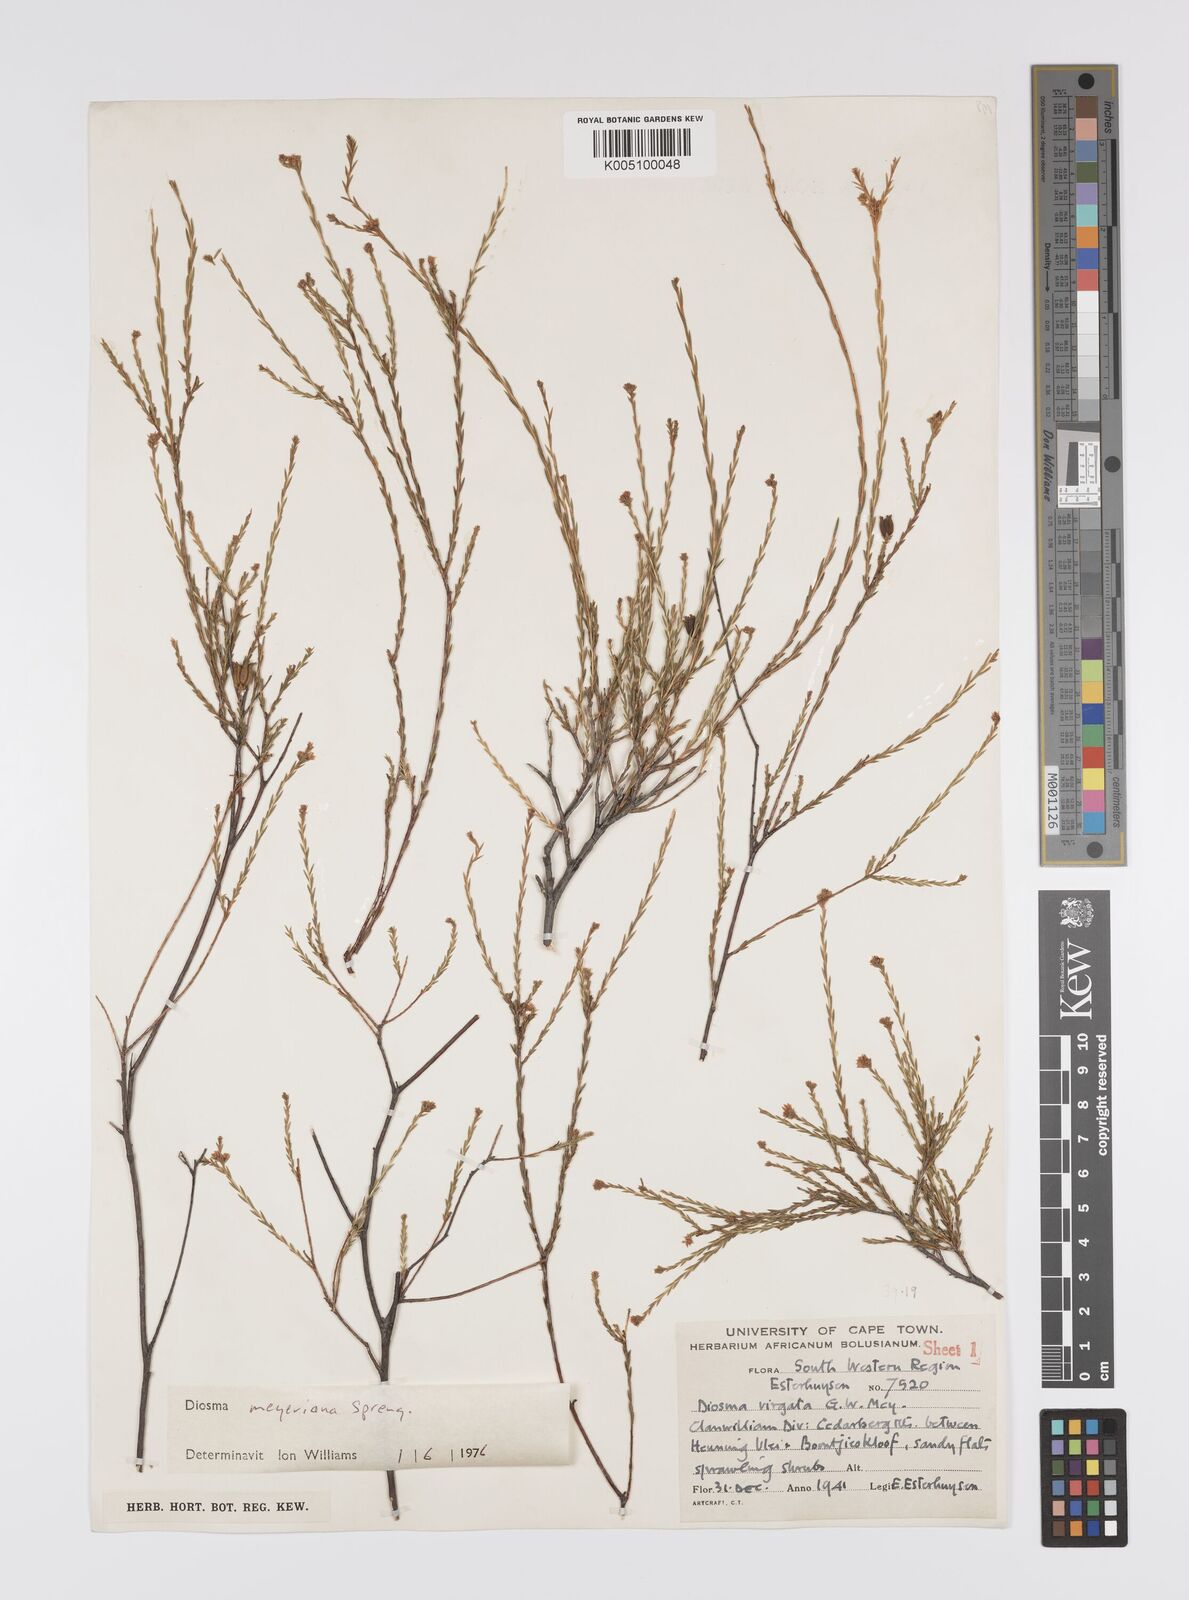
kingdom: Plantae
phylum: Tracheophyta
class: Magnoliopsida
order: Sapindales
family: Rutaceae
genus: Agathosma
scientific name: Agathosma virgata
